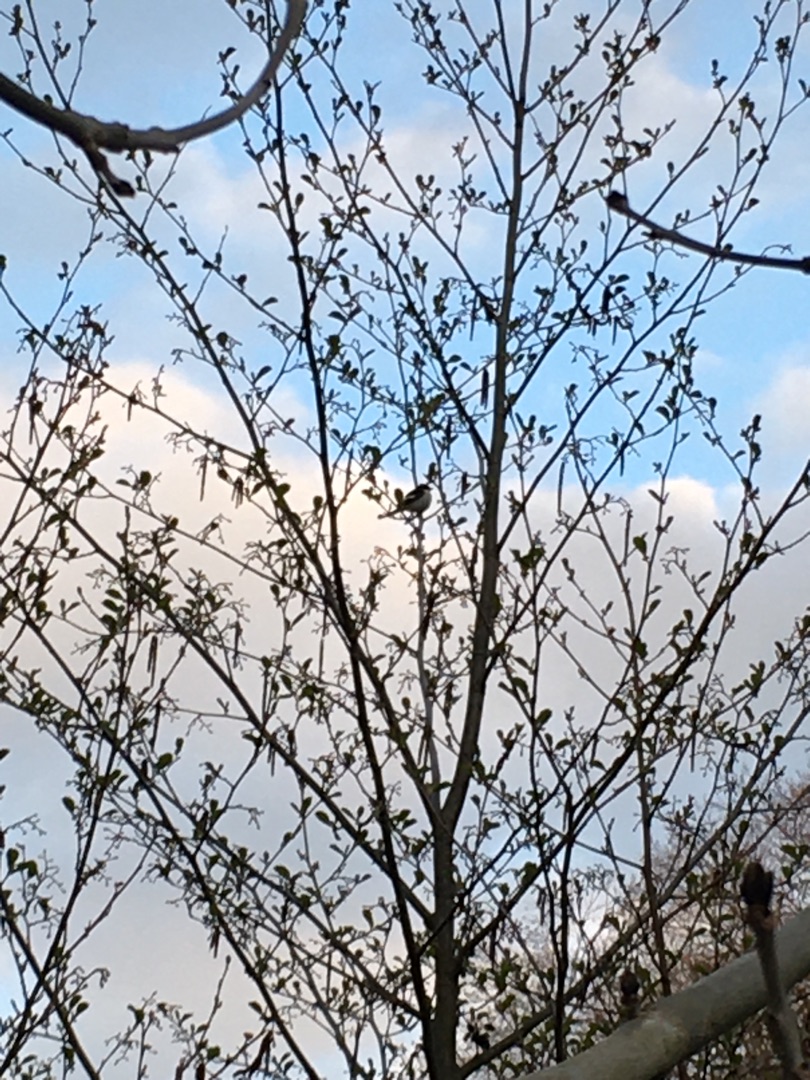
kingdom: Animalia
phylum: Chordata
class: Aves
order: Passeriformes
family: Muscicapidae
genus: Ficedula
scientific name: Ficedula hypoleuca
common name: Broget fluesnapper
